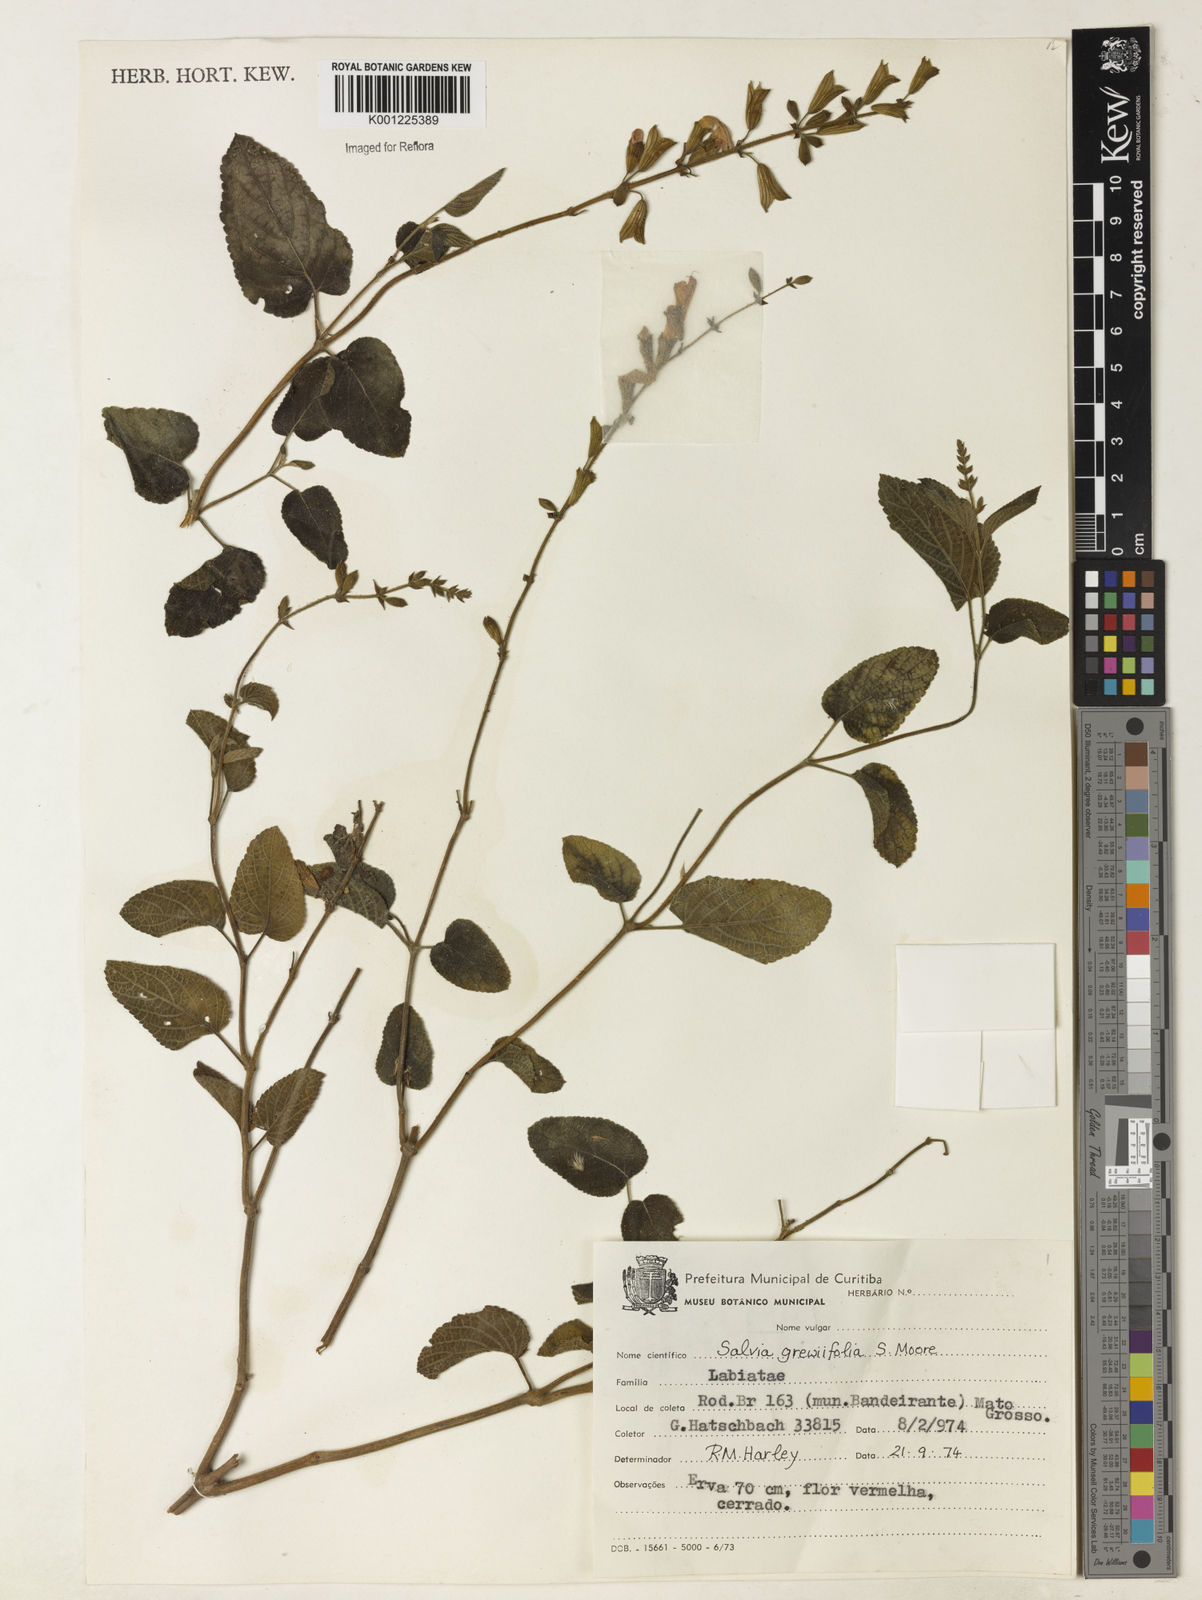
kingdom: Plantae
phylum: Tracheophyta
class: Magnoliopsida
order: Lamiales
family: Lamiaceae
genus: Salvia
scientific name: Salvia grewiifolia
